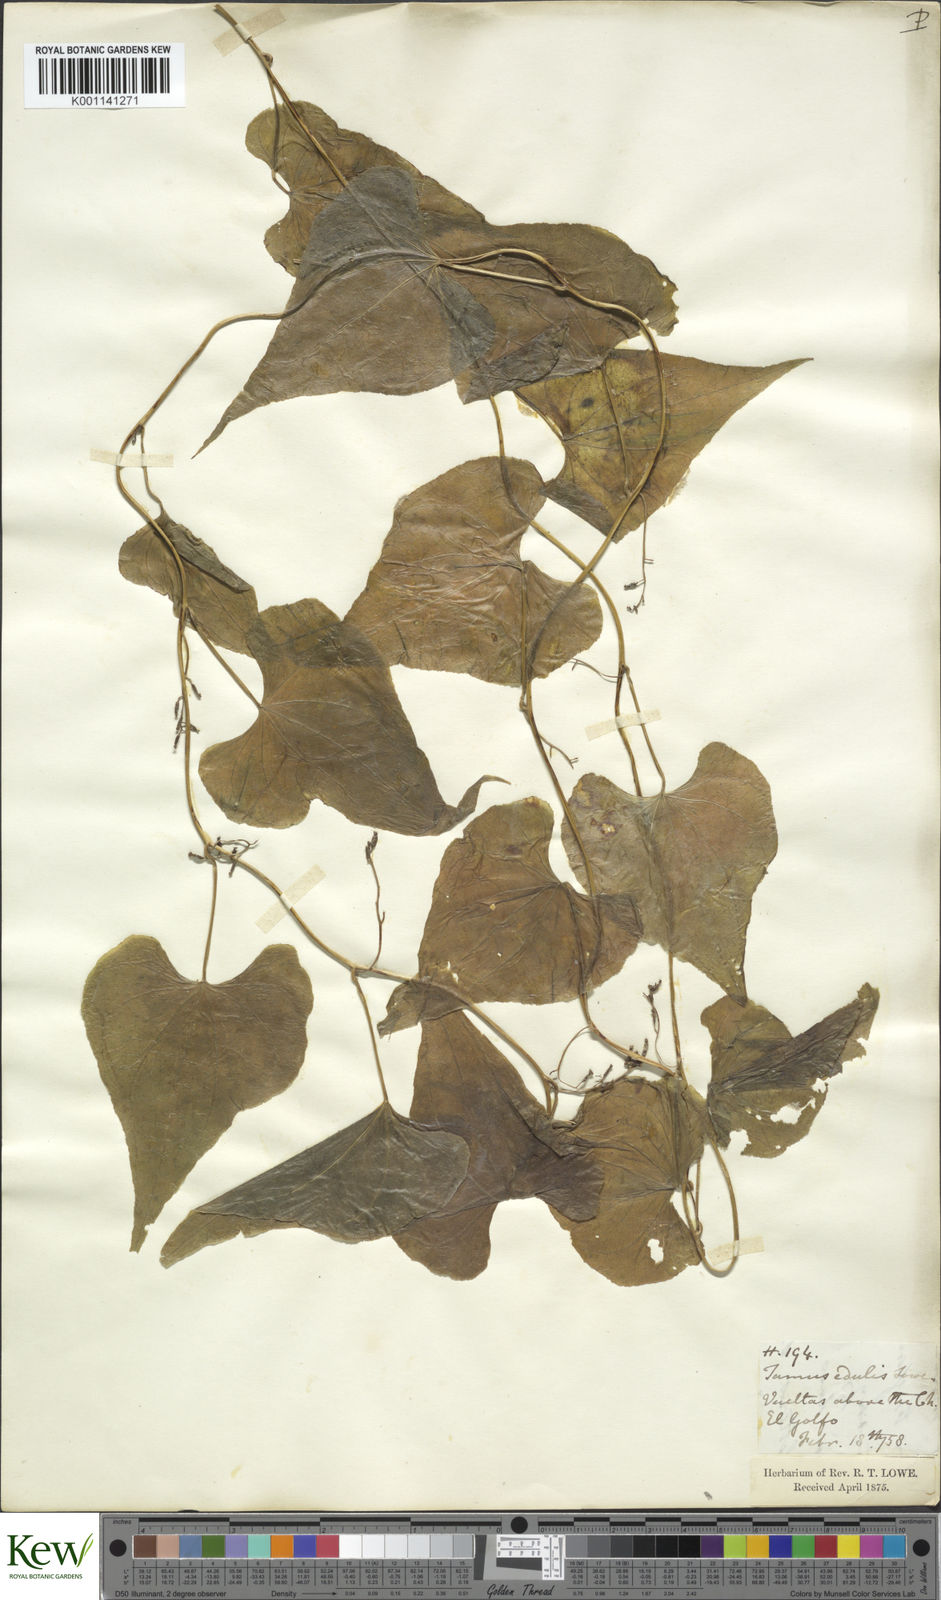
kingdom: Plantae
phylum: Tracheophyta
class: Liliopsida
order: Dioscoreales
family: Dioscoreaceae
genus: Dioscorea
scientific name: Dioscorea
